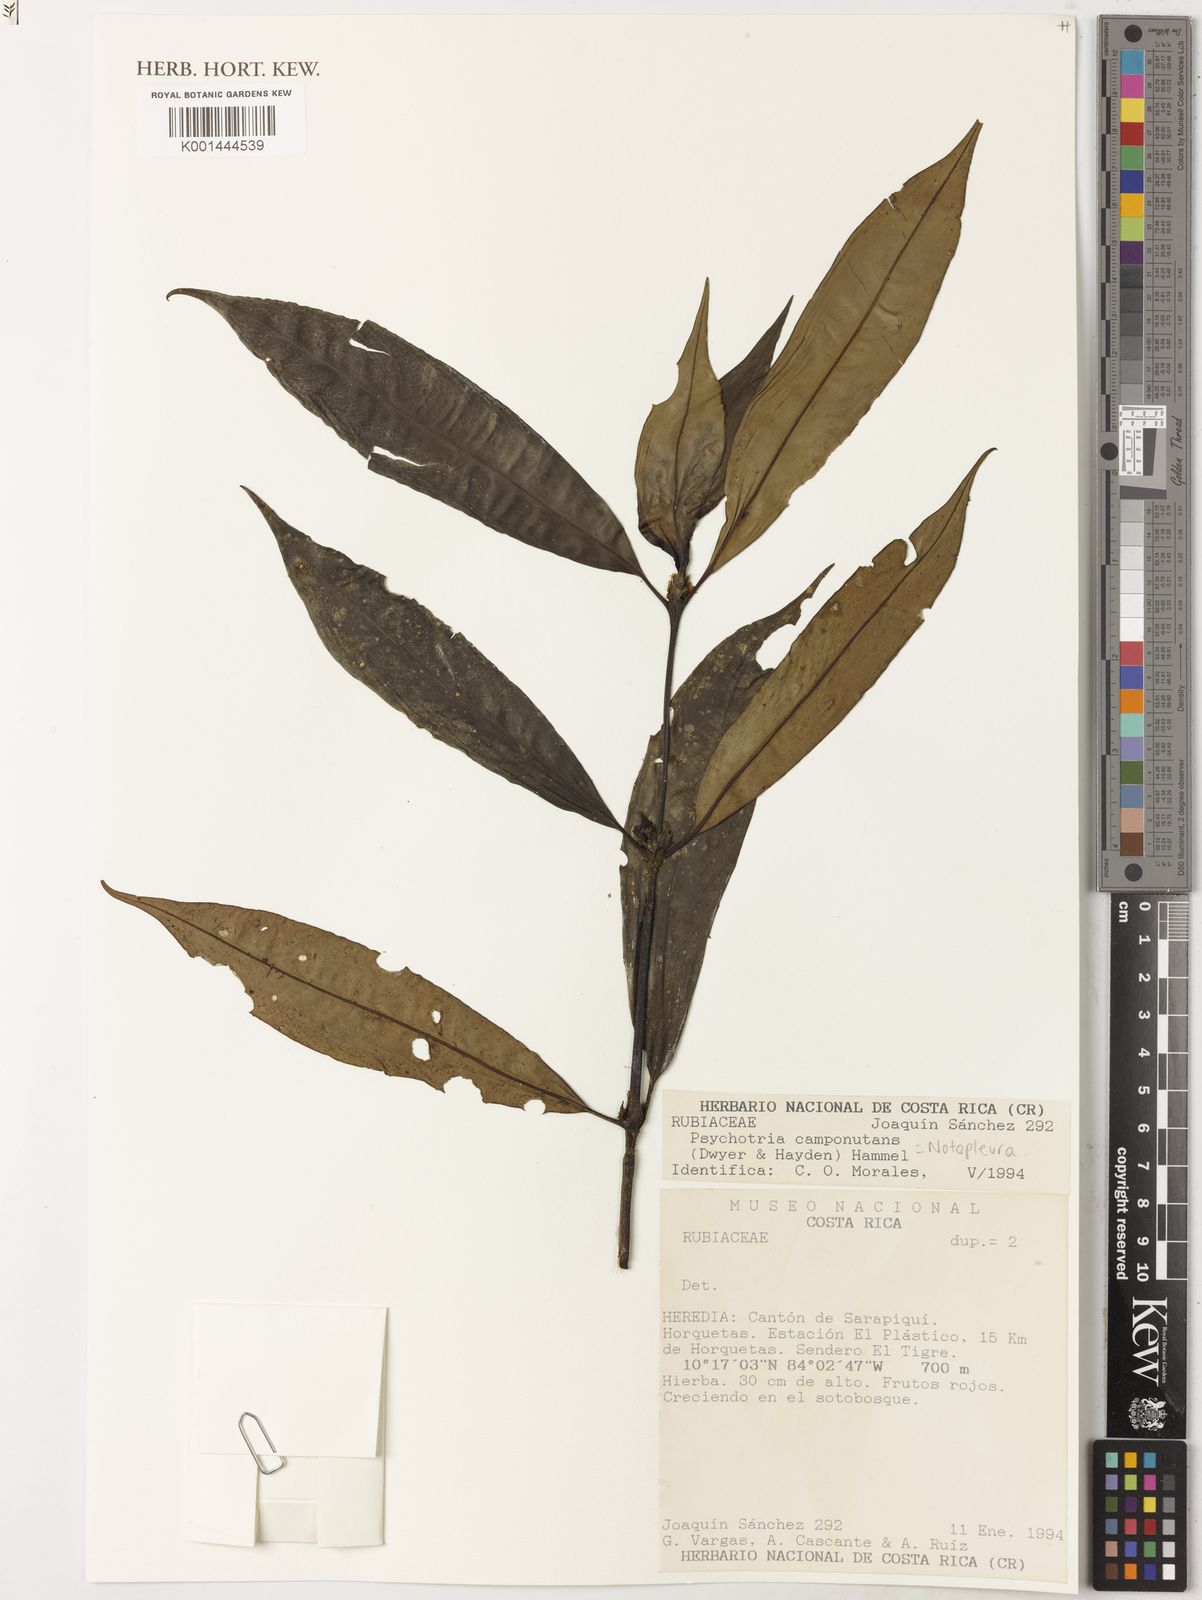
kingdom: Plantae
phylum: Tracheophyta
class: Magnoliopsida
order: Gentianales
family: Rubiaceae
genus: Notopleura
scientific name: Notopleura camponutans
